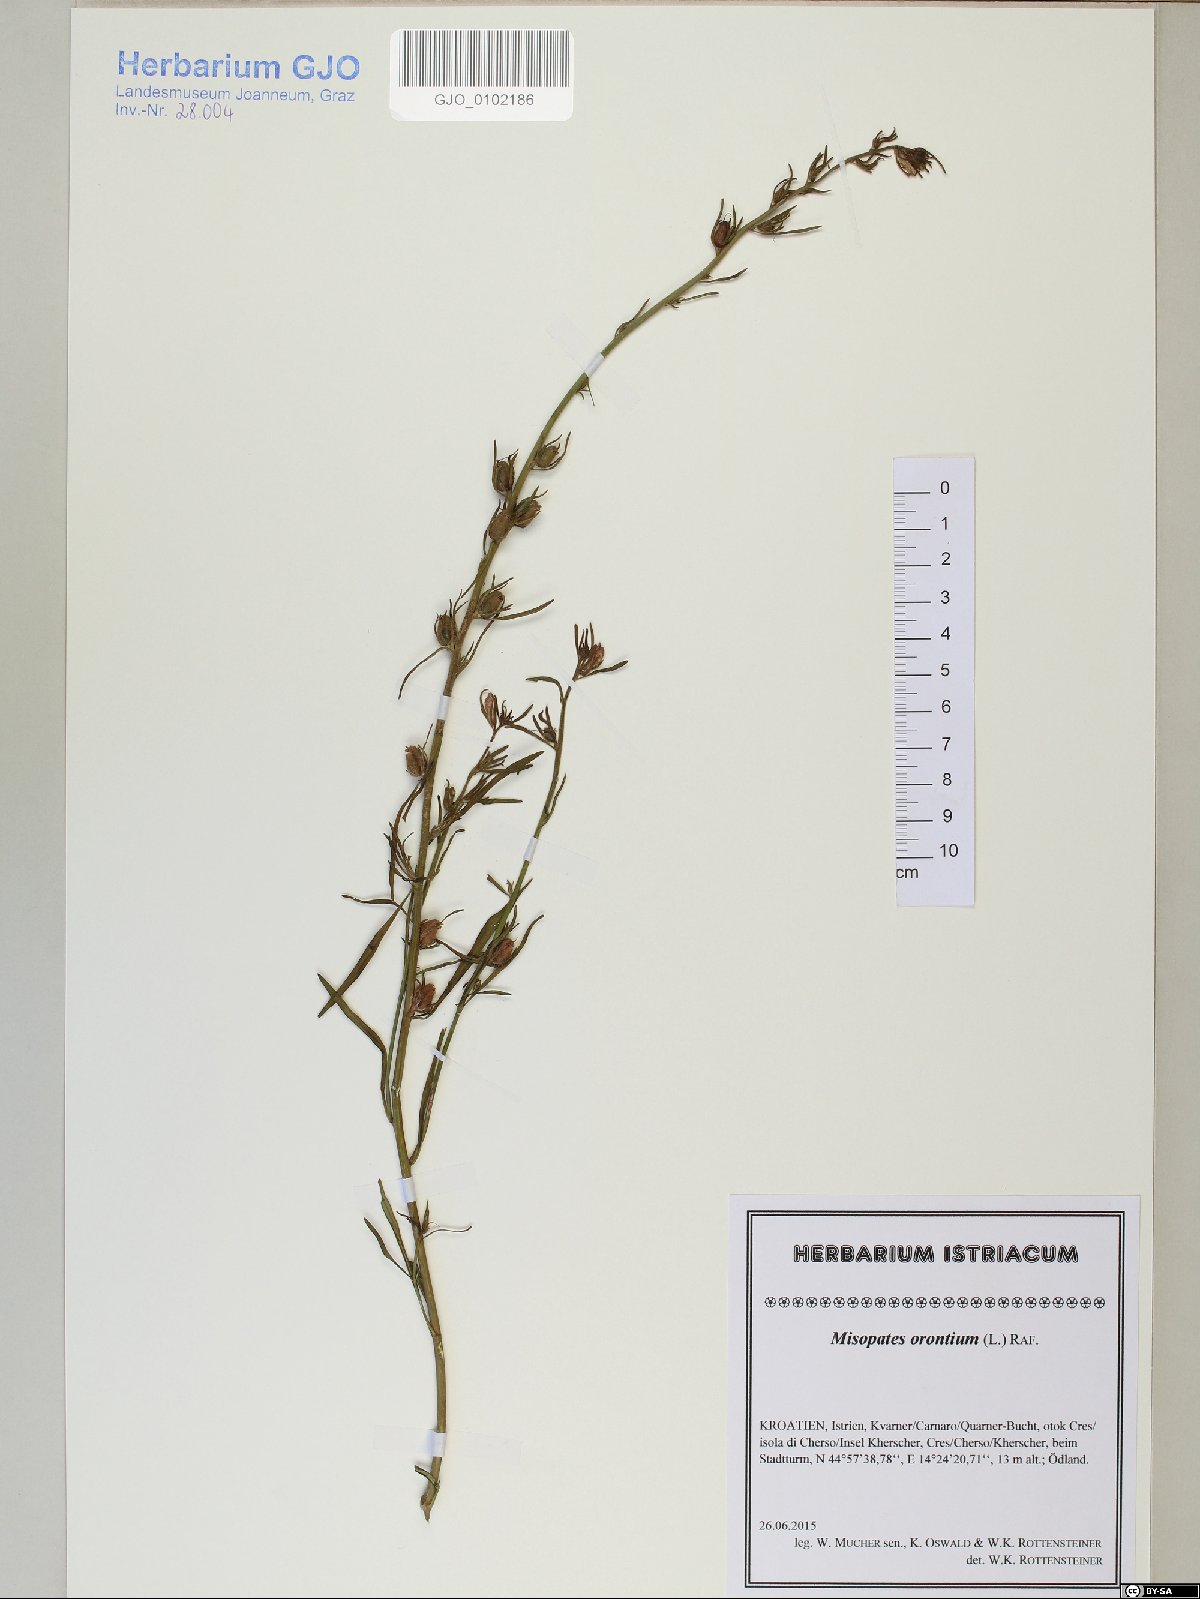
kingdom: Plantae
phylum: Tracheophyta
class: Magnoliopsida
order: Lamiales
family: Plantaginaceae
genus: Misopates
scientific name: Misopates orontium
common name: Weasel's-snout
